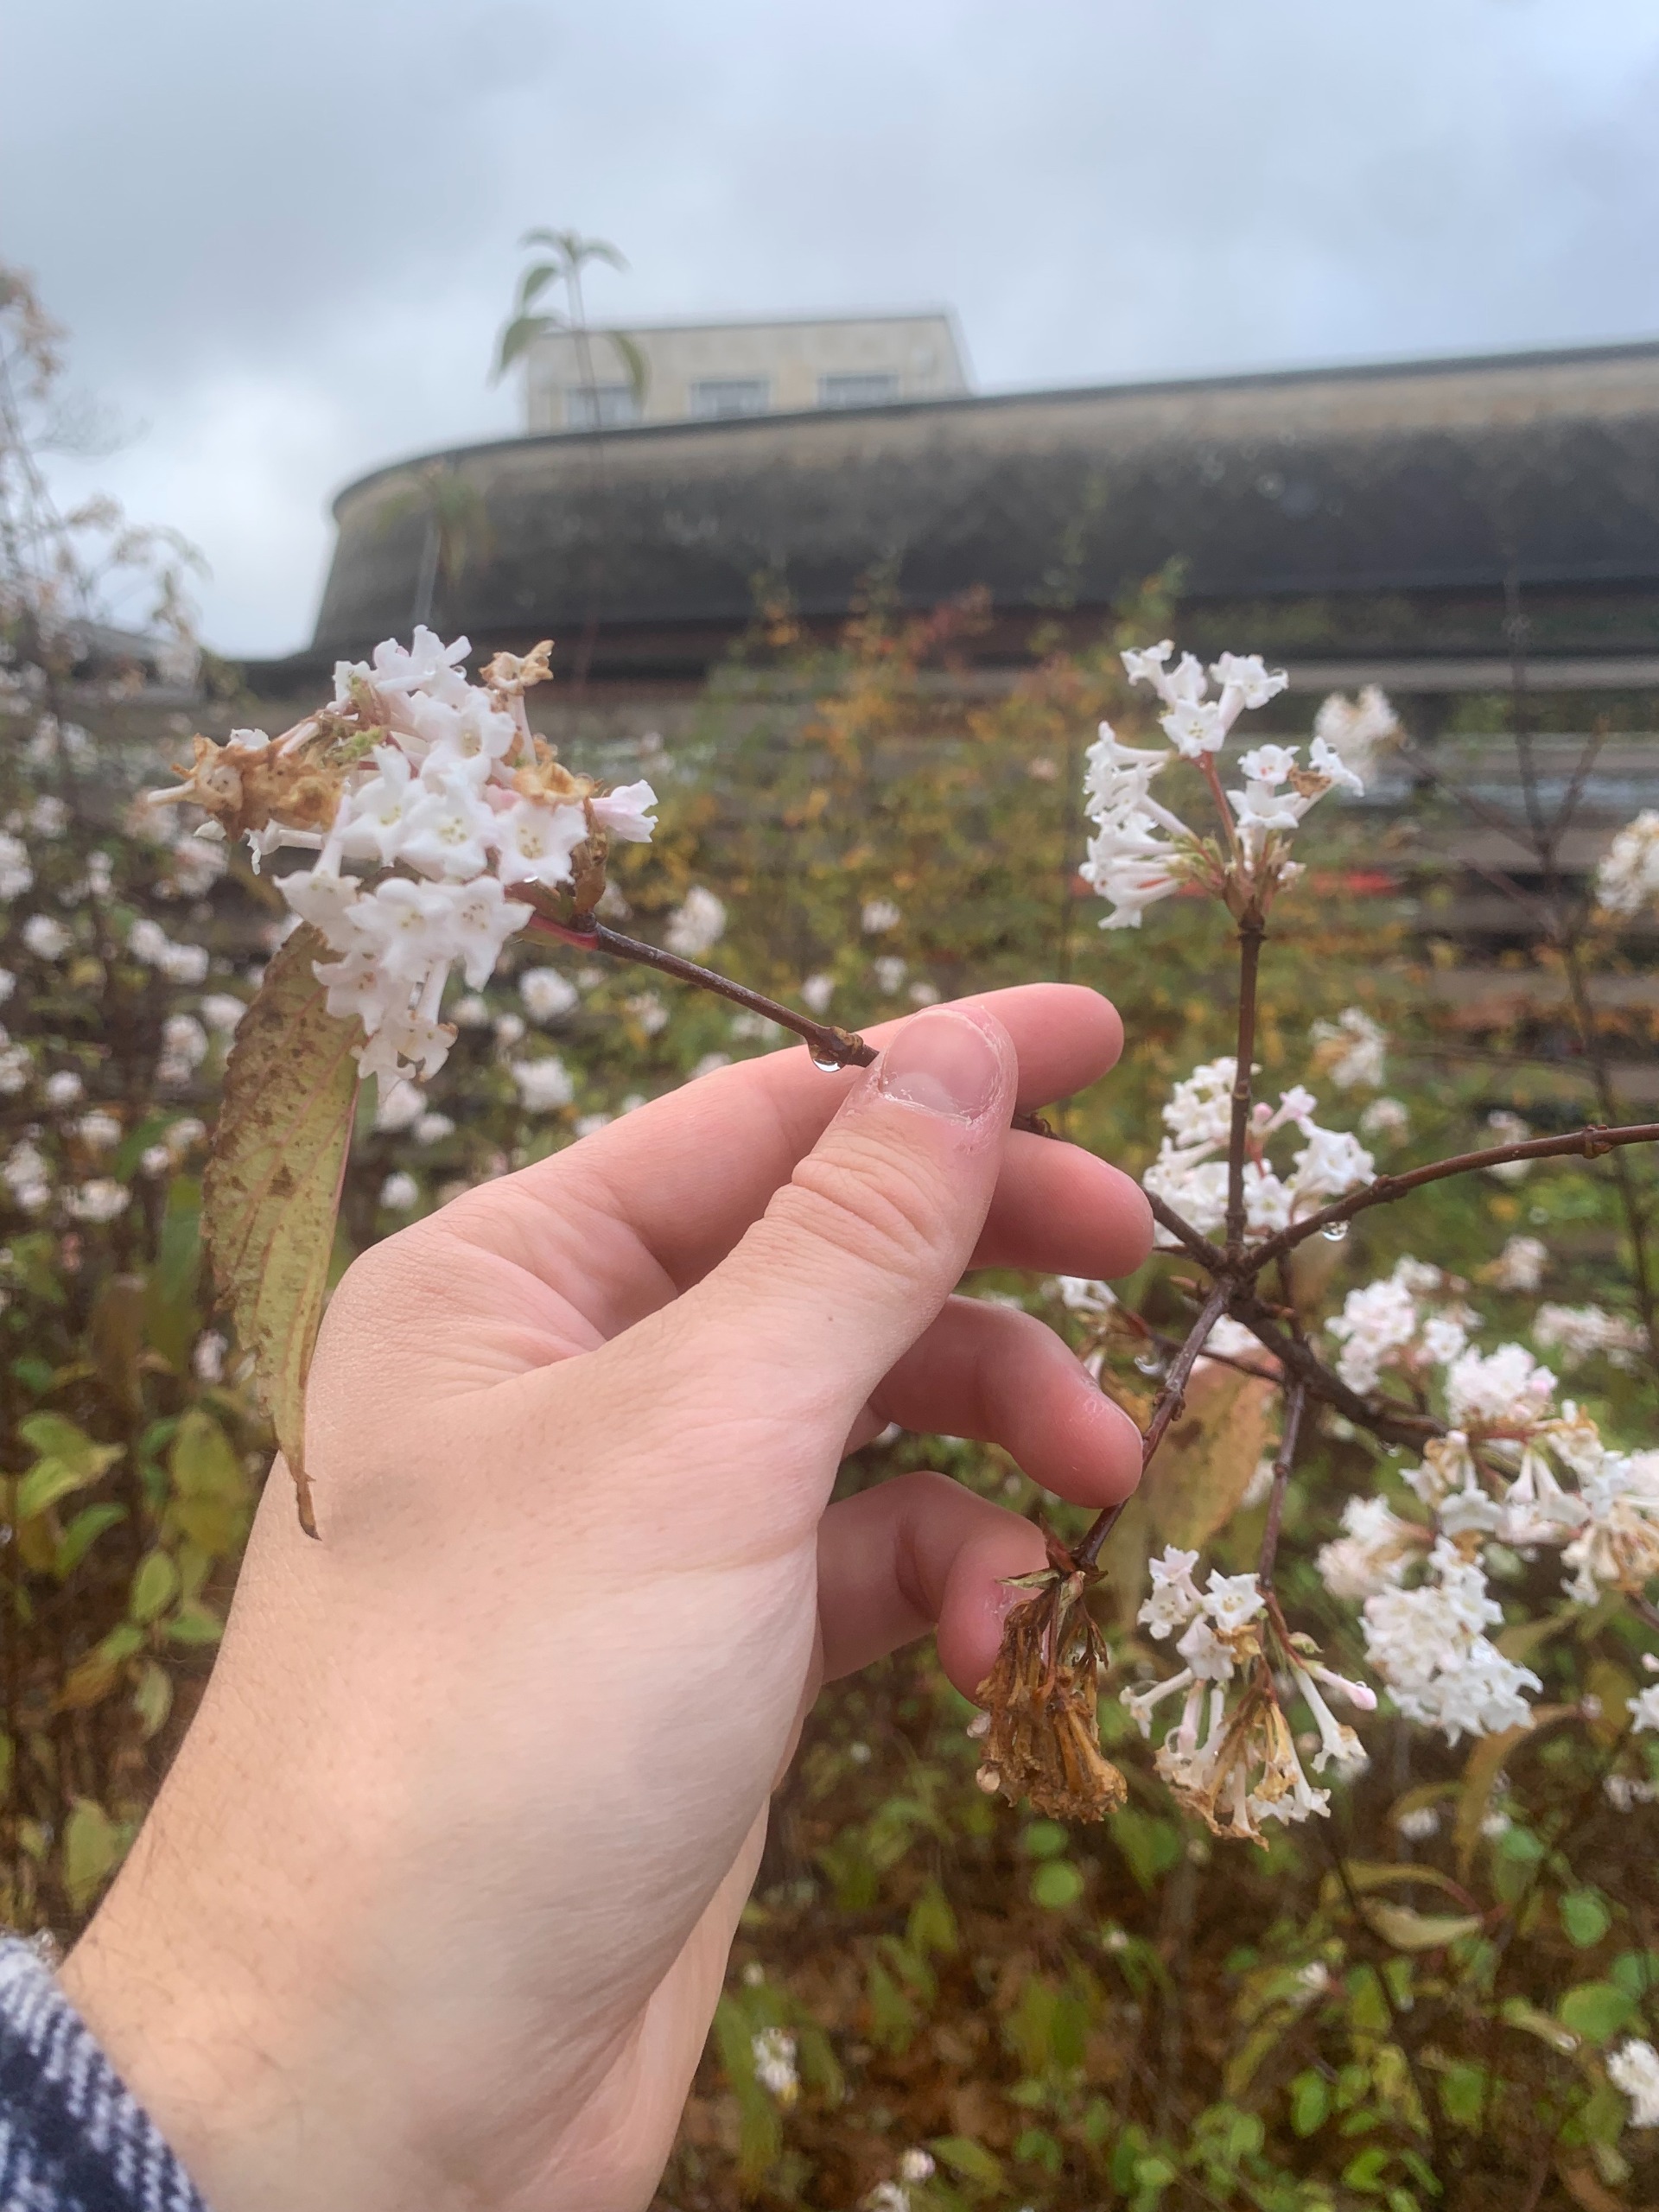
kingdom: Plantae
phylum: Tracheophyta
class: Magnoliopsida
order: Dipsacales
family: Viburnaceae
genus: Viburnum
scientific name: Viburnum farreri
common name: Kejserbusk
